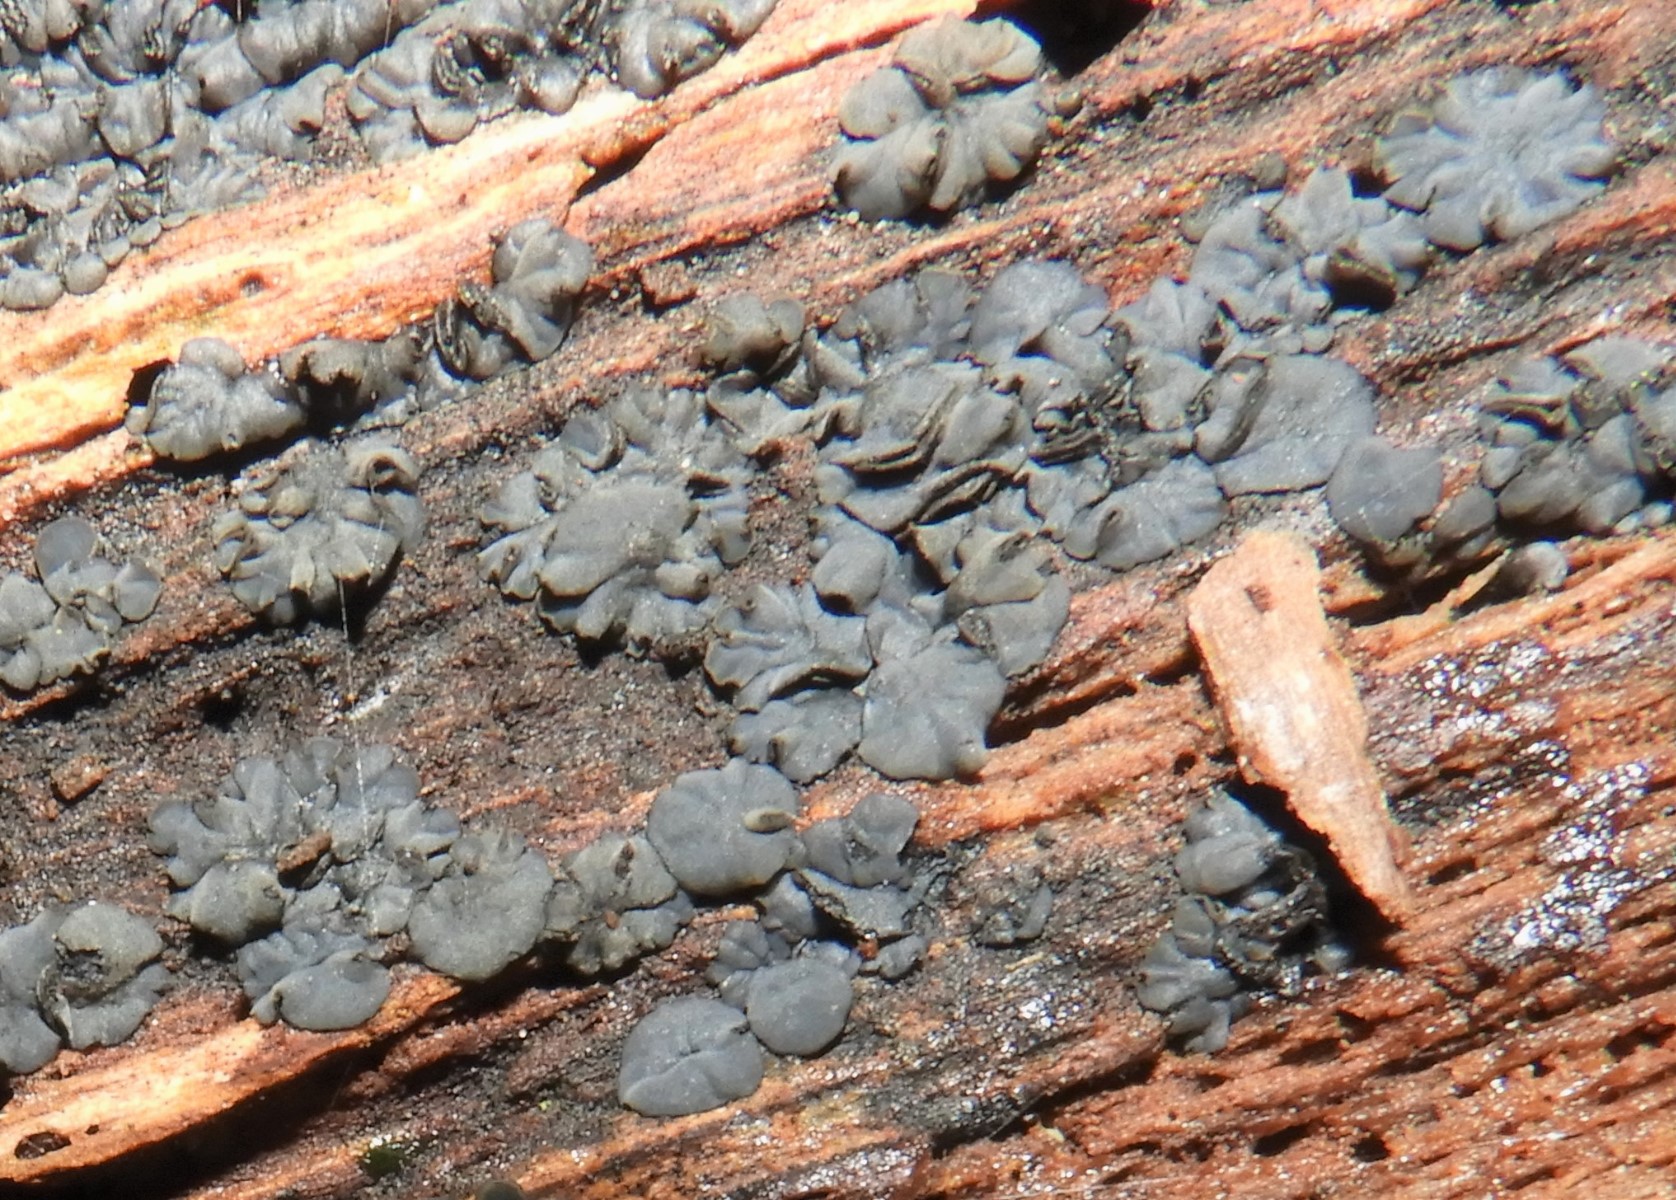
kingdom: Fungi
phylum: Ascomycota
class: Leotiomycetes
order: Helotiales
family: Mollisiaceae
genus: Mollisia
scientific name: Mollisia
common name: gråskive
